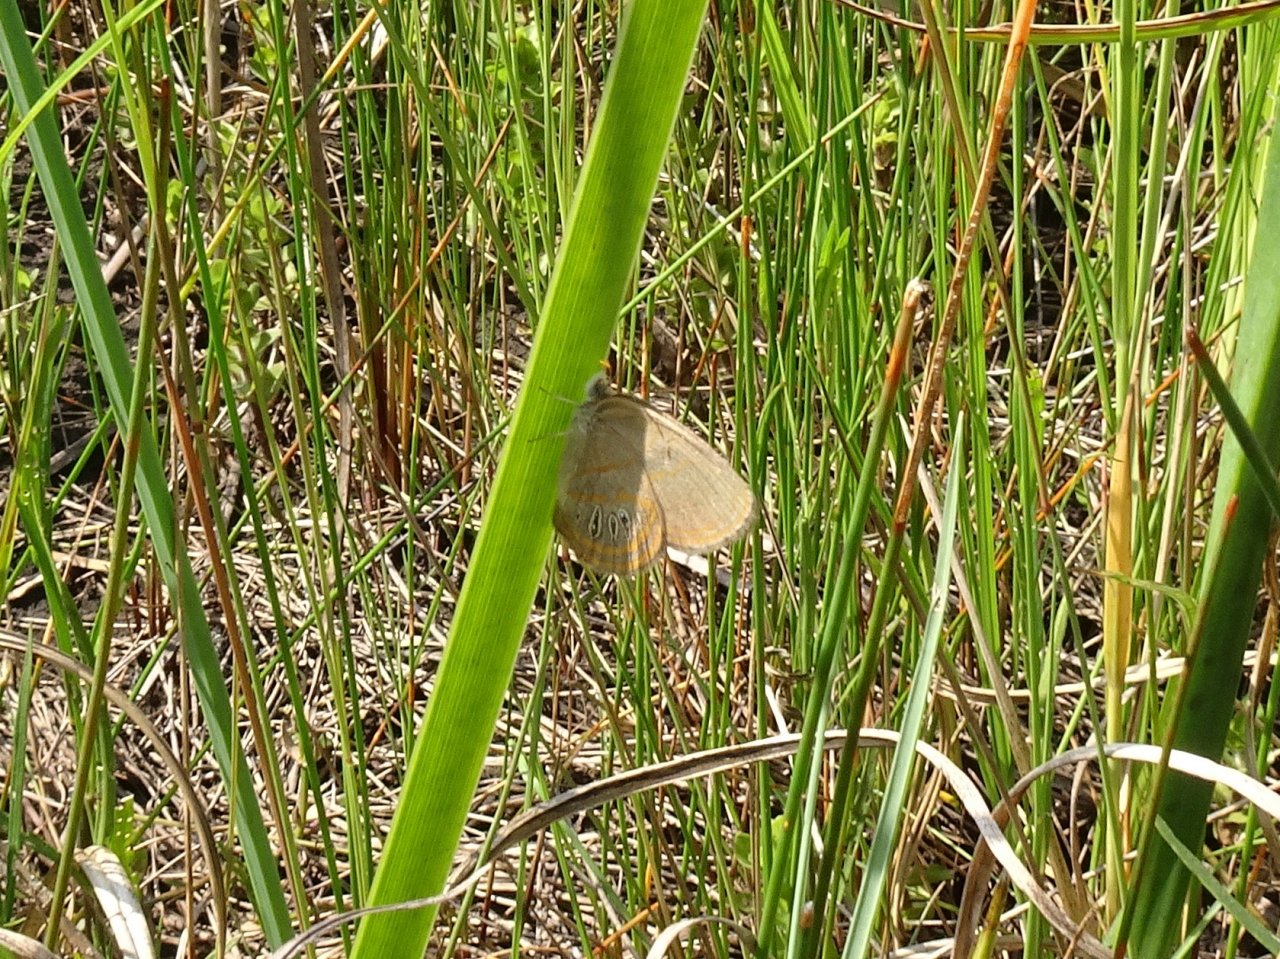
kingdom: Animalia
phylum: Arthropoda
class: Insecta
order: Lepidoptera
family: Nymphalidae
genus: Euptychia
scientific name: Euptychia phocion
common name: Georgia Satyr
